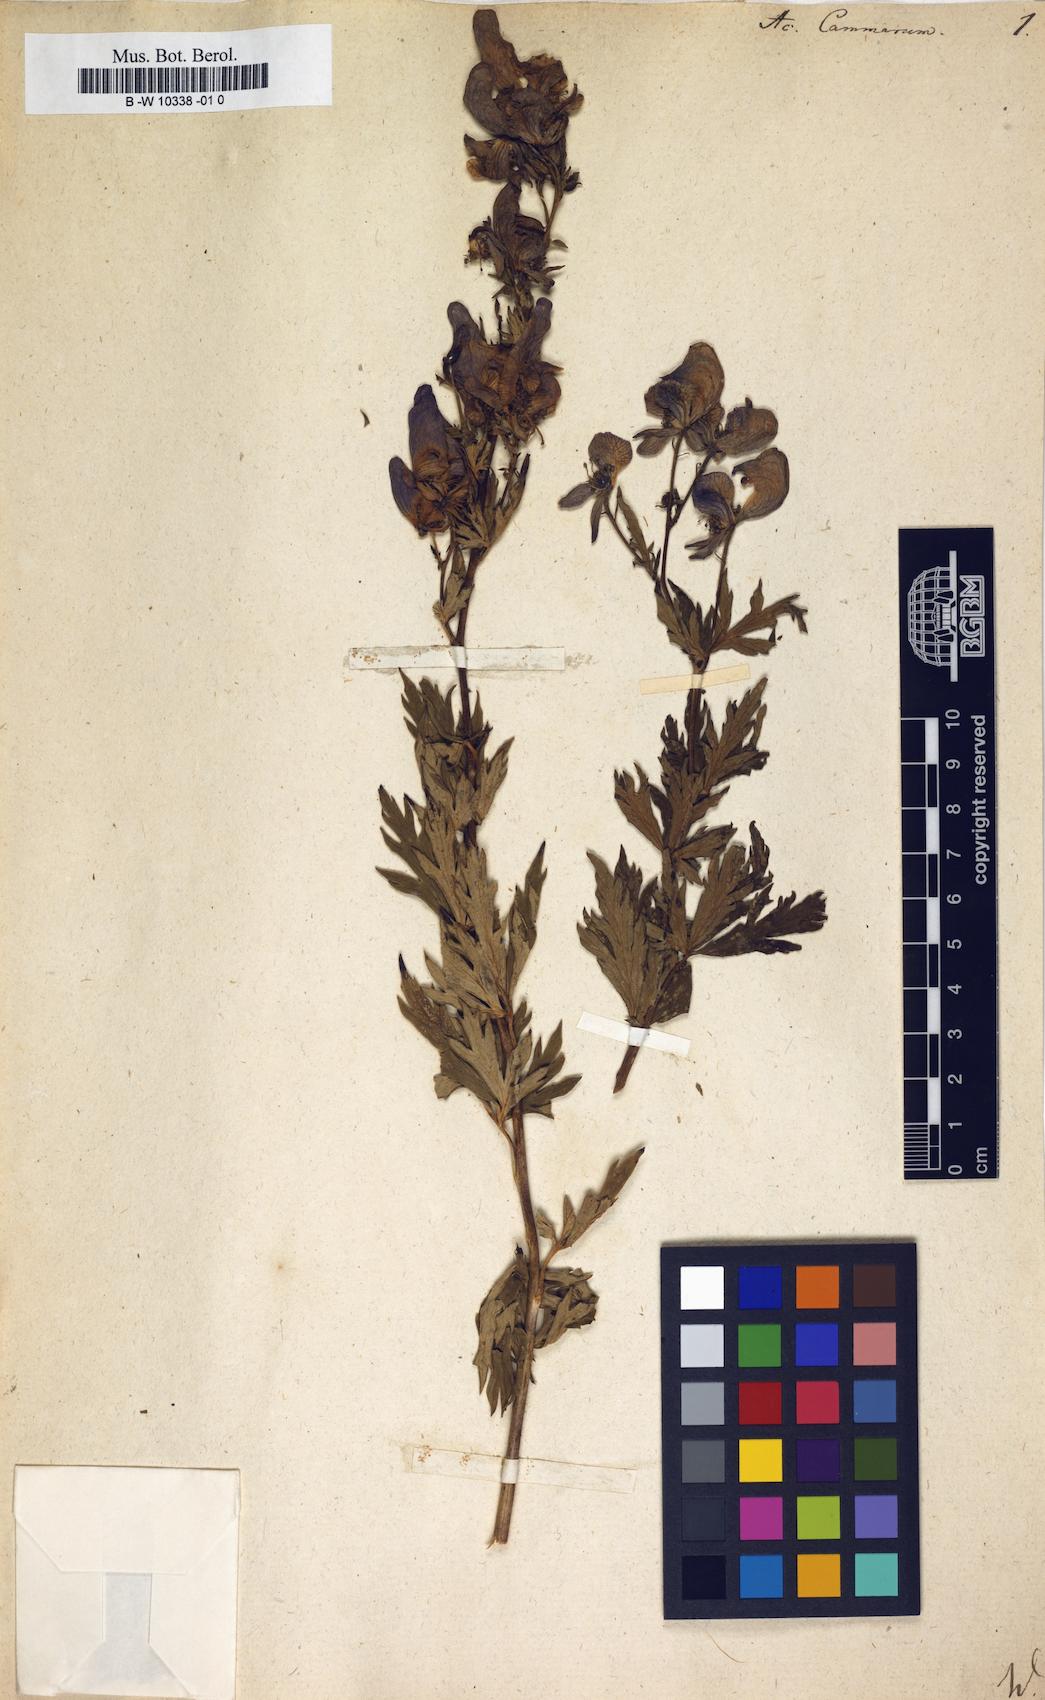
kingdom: Plantae
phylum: Tracheophyta
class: Magnoliopsida
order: Ranunculales
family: Ranunculaceae
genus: Aconitum
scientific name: Aconitum variegatum
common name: Manchurian monkshood
